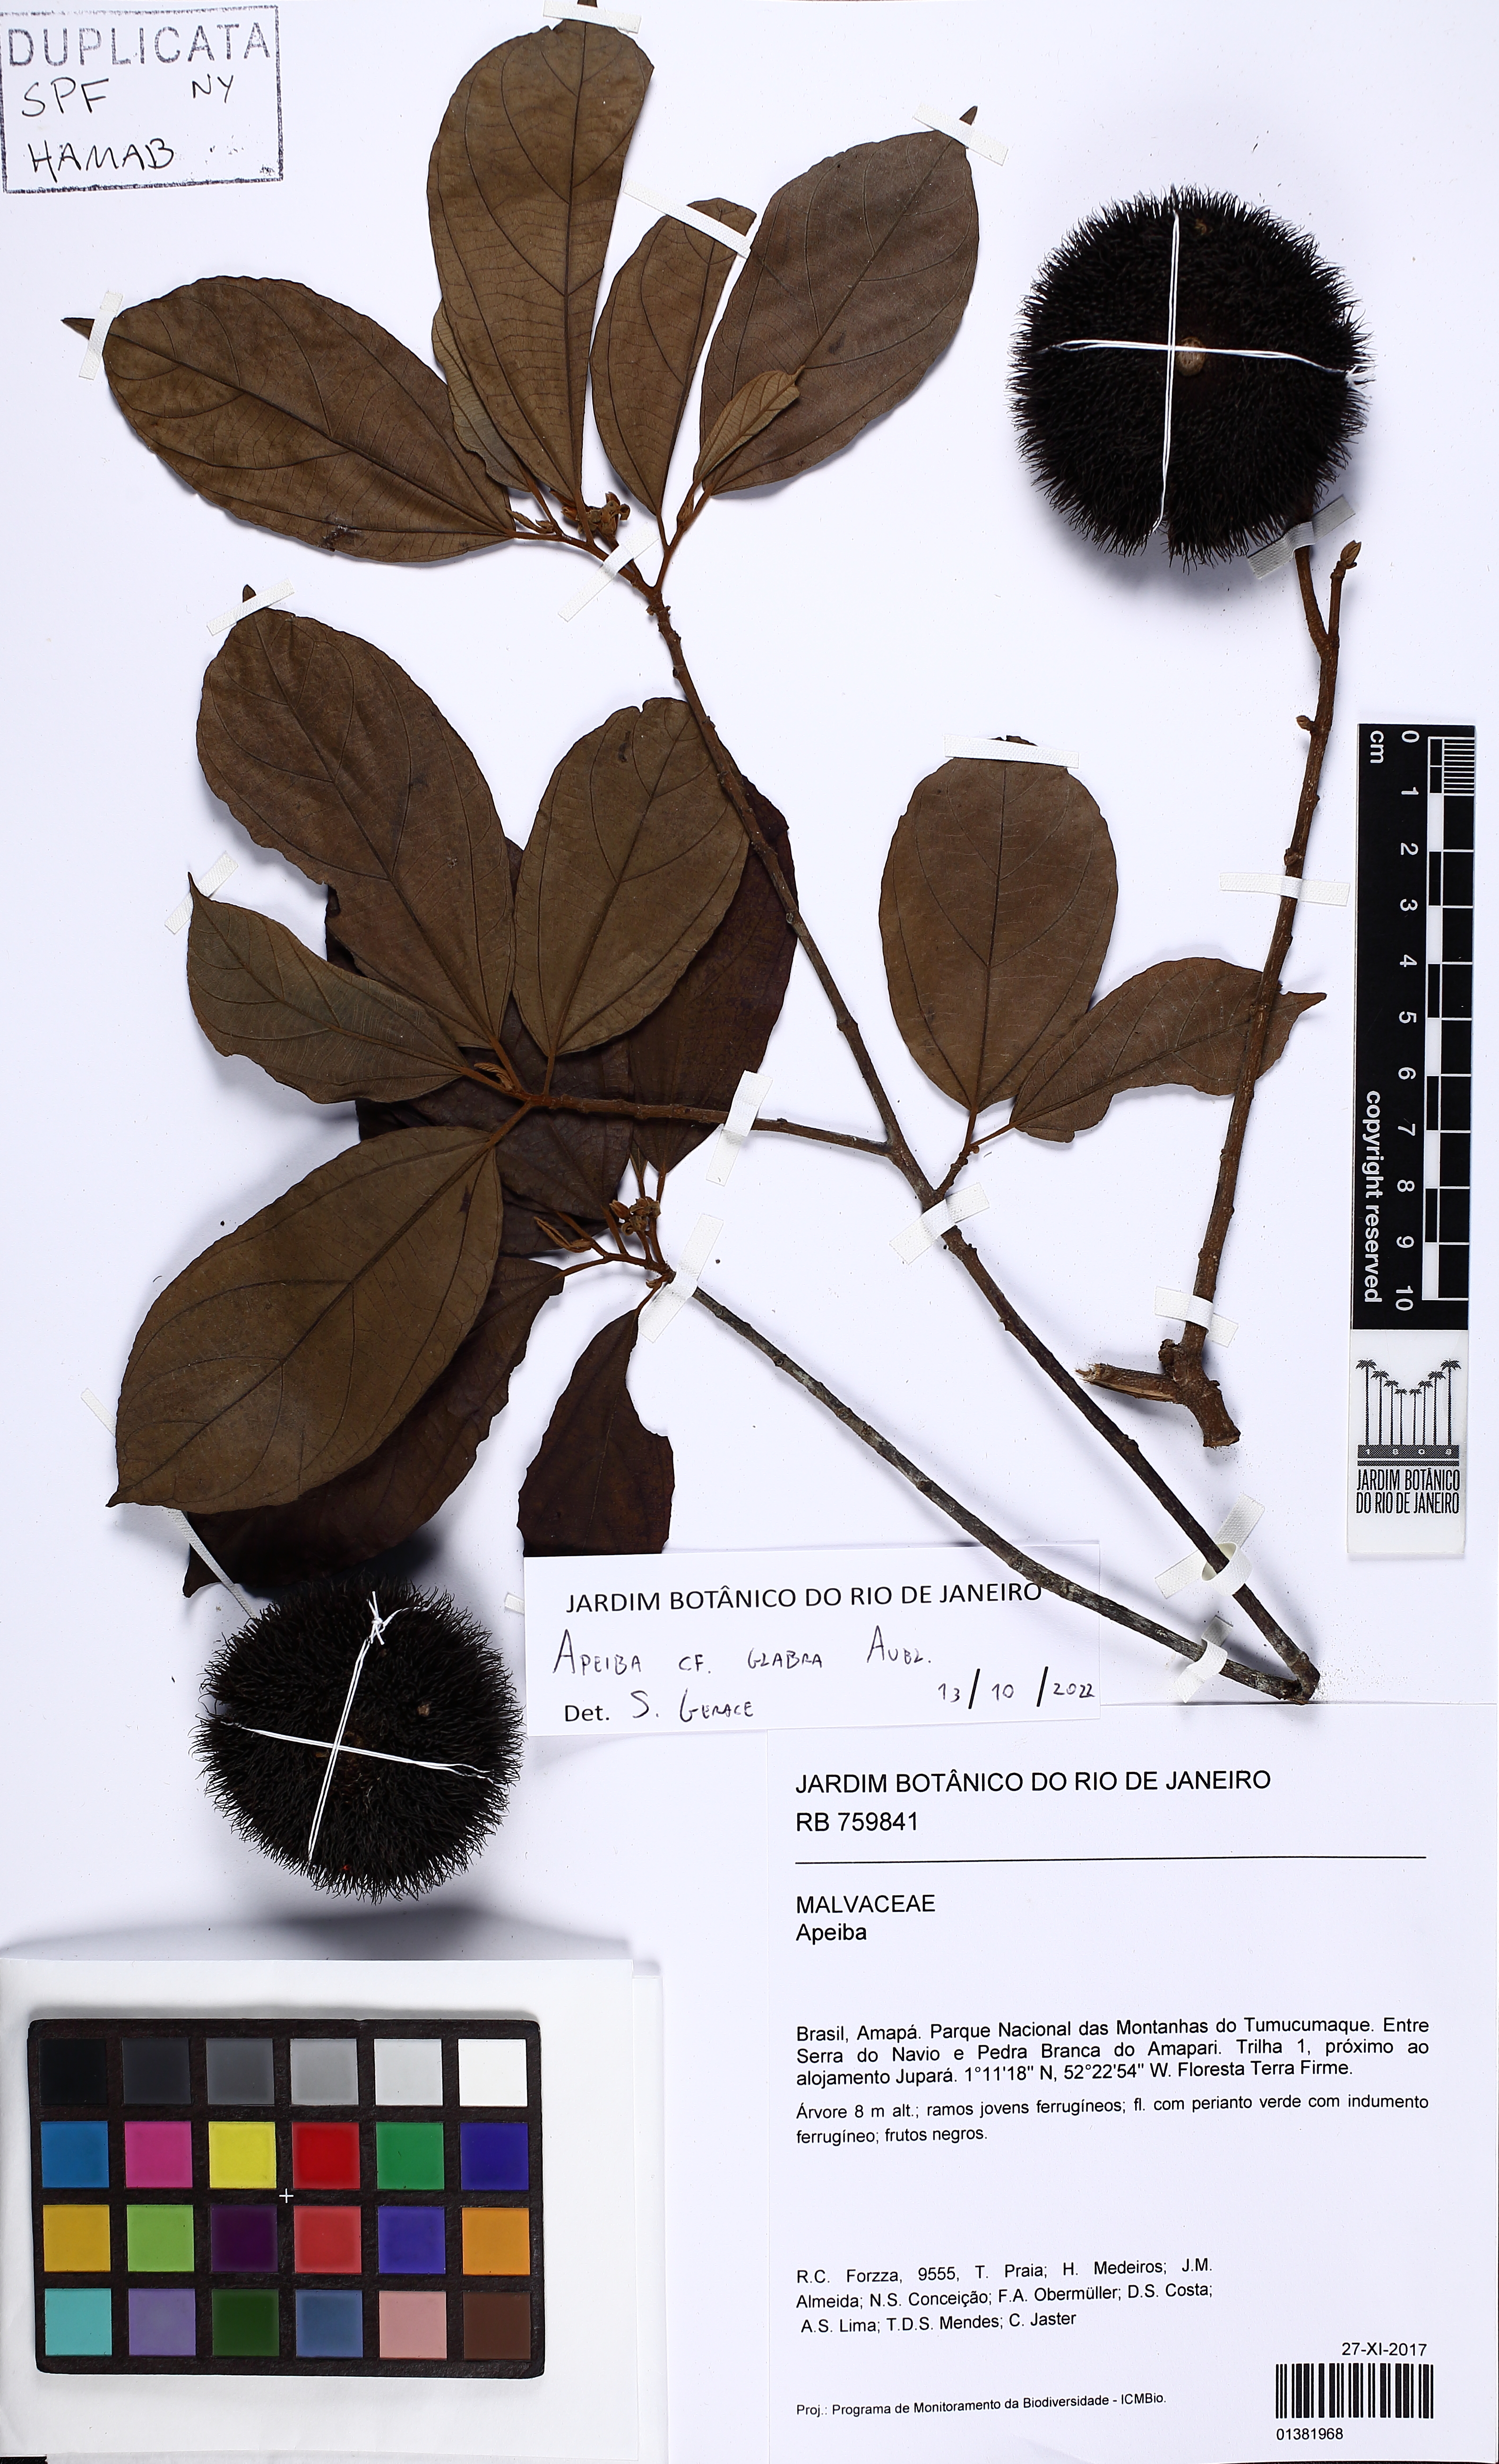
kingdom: Plantae
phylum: Tracheophyta
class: Magnoliopsida
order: Malvales
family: Malvaceae
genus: Apeiba
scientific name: Apeiba glabra
